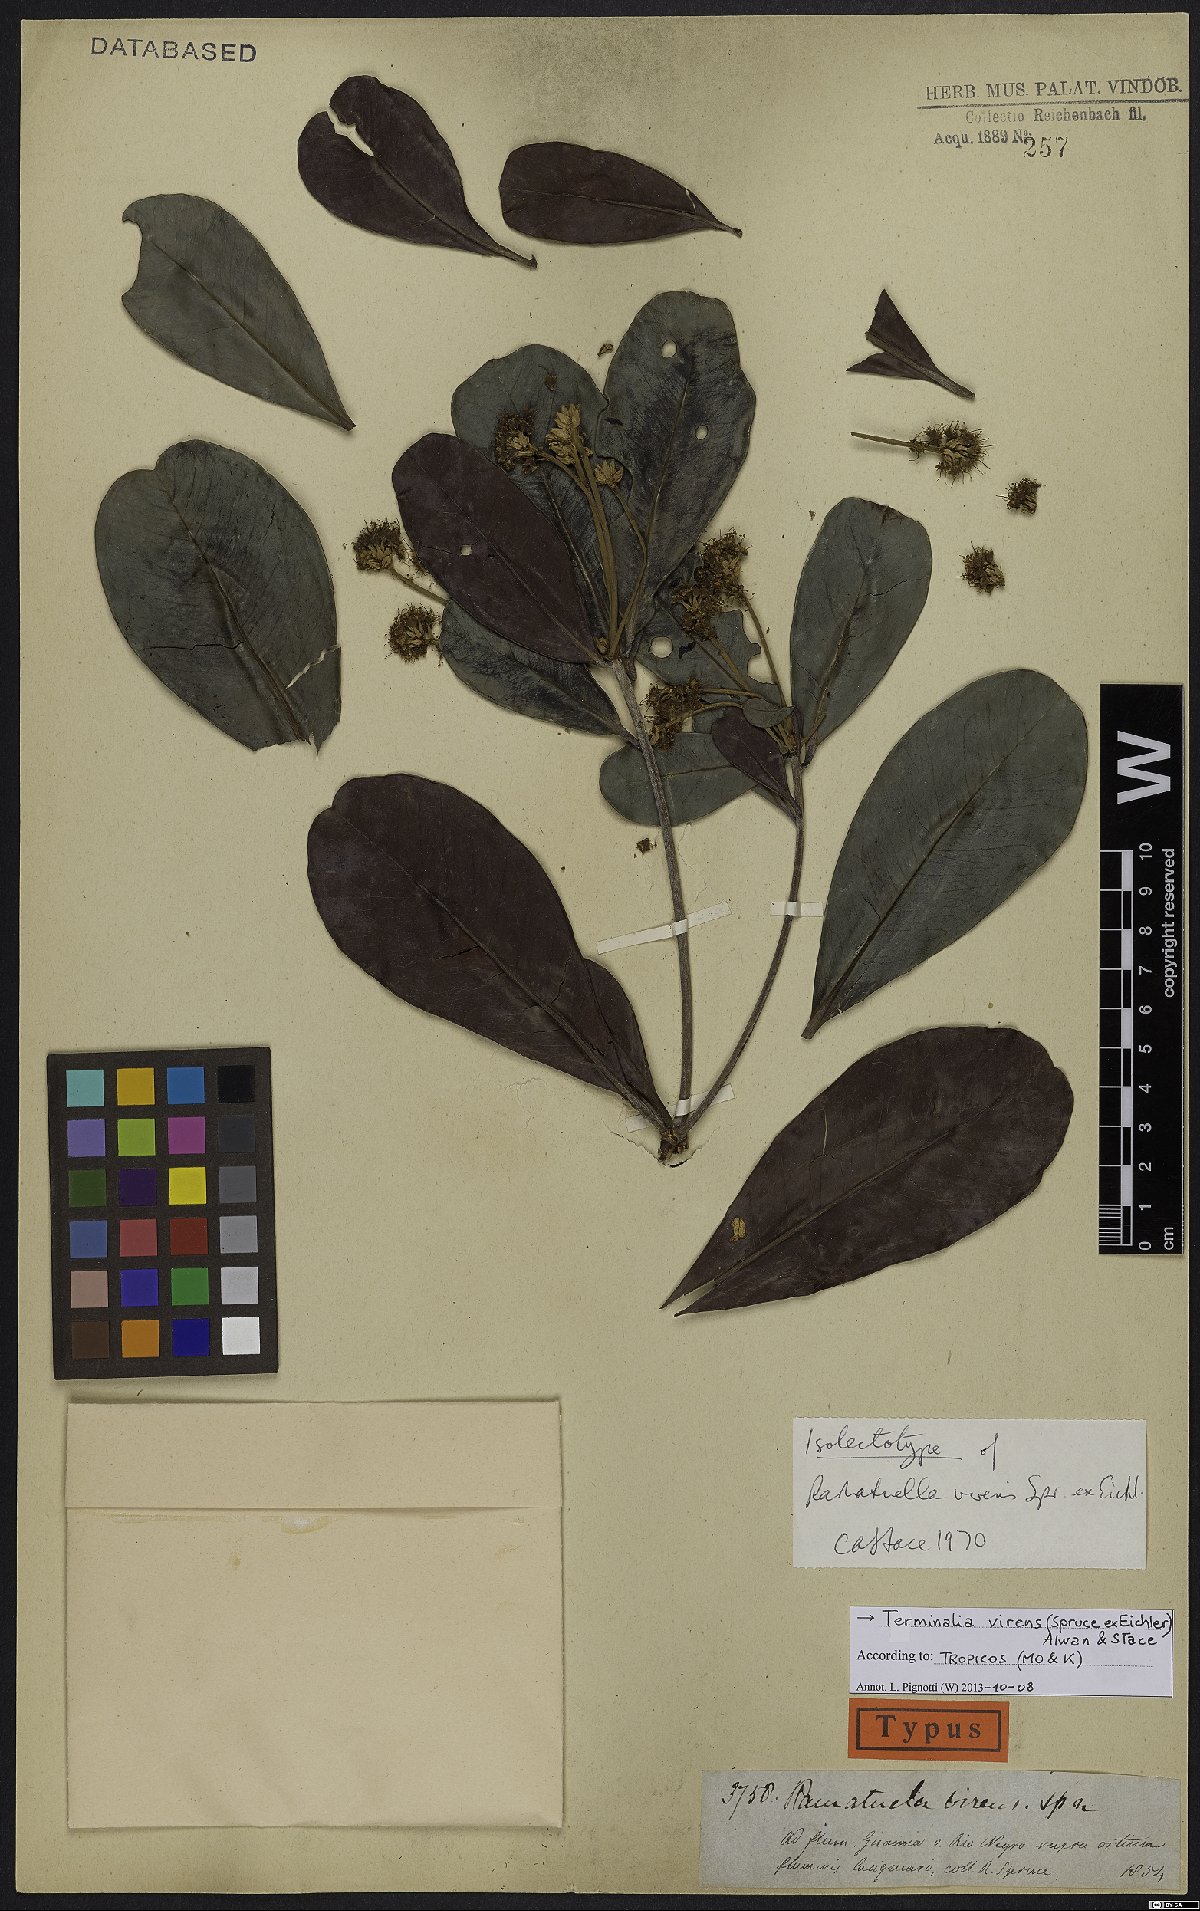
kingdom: Plantae
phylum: Tracheophyta
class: Magnoliopsida
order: Myrtales
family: Combretaceae
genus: Terminalia
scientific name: Terminalia virens
